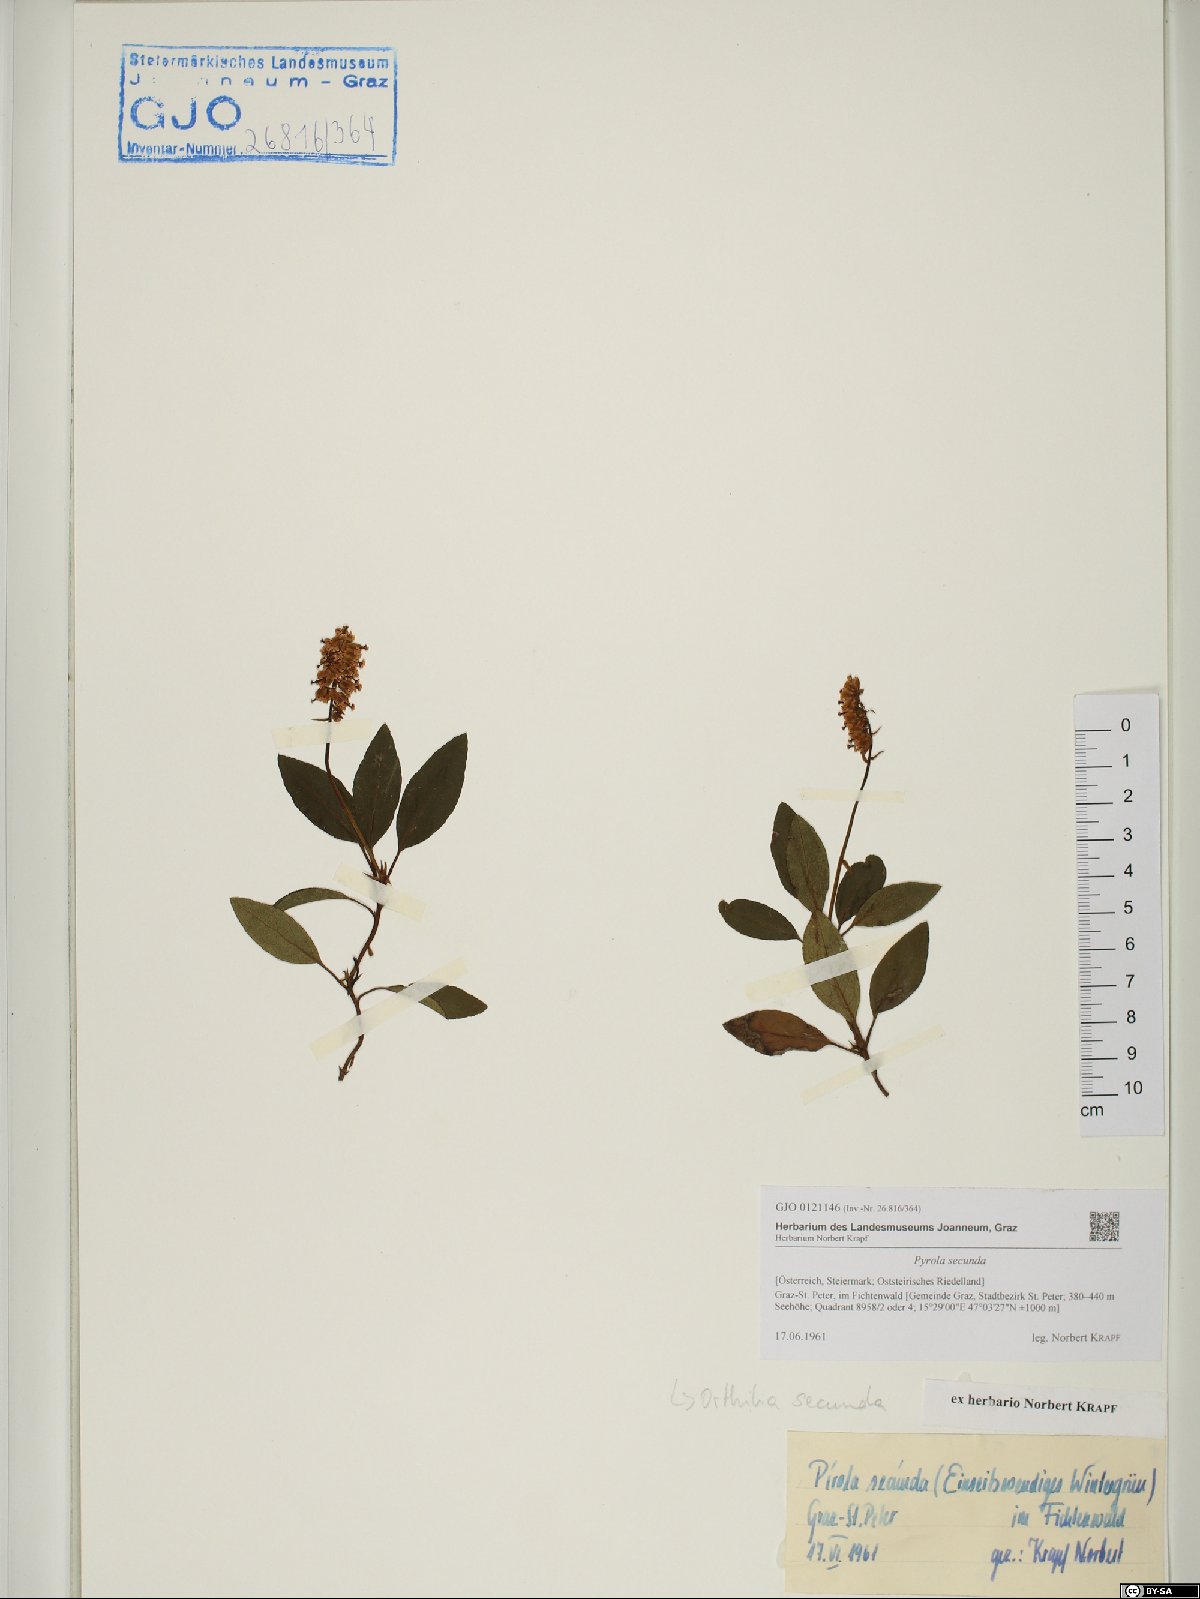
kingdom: Plantae
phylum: Tracheophyta
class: Magnoliopsida
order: Ericales
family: Ericaceae
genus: Orthilia
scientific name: Orthilia secunda
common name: One-sided orthilia
